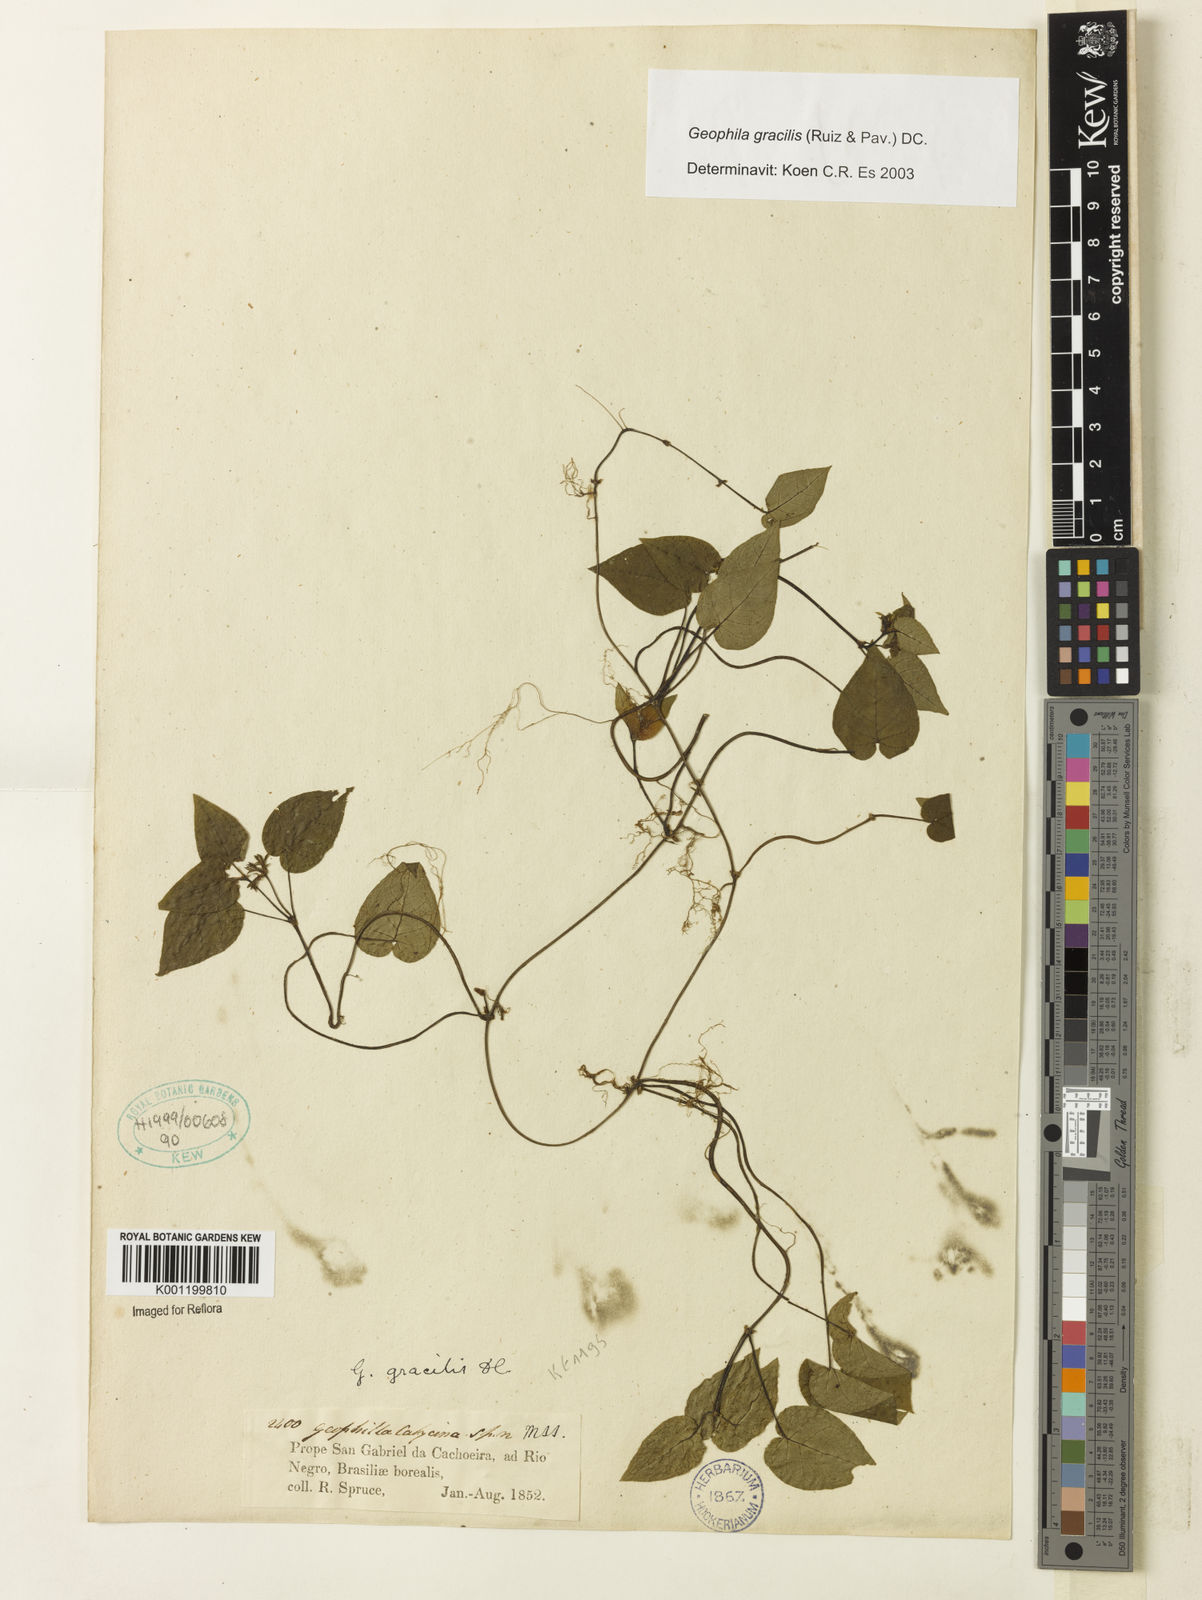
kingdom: Plantae
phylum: Tracheophyta
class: Magnoliopsida
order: Gentianales
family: Rubiaceae
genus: Geophila
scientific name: Geophila gracilis
